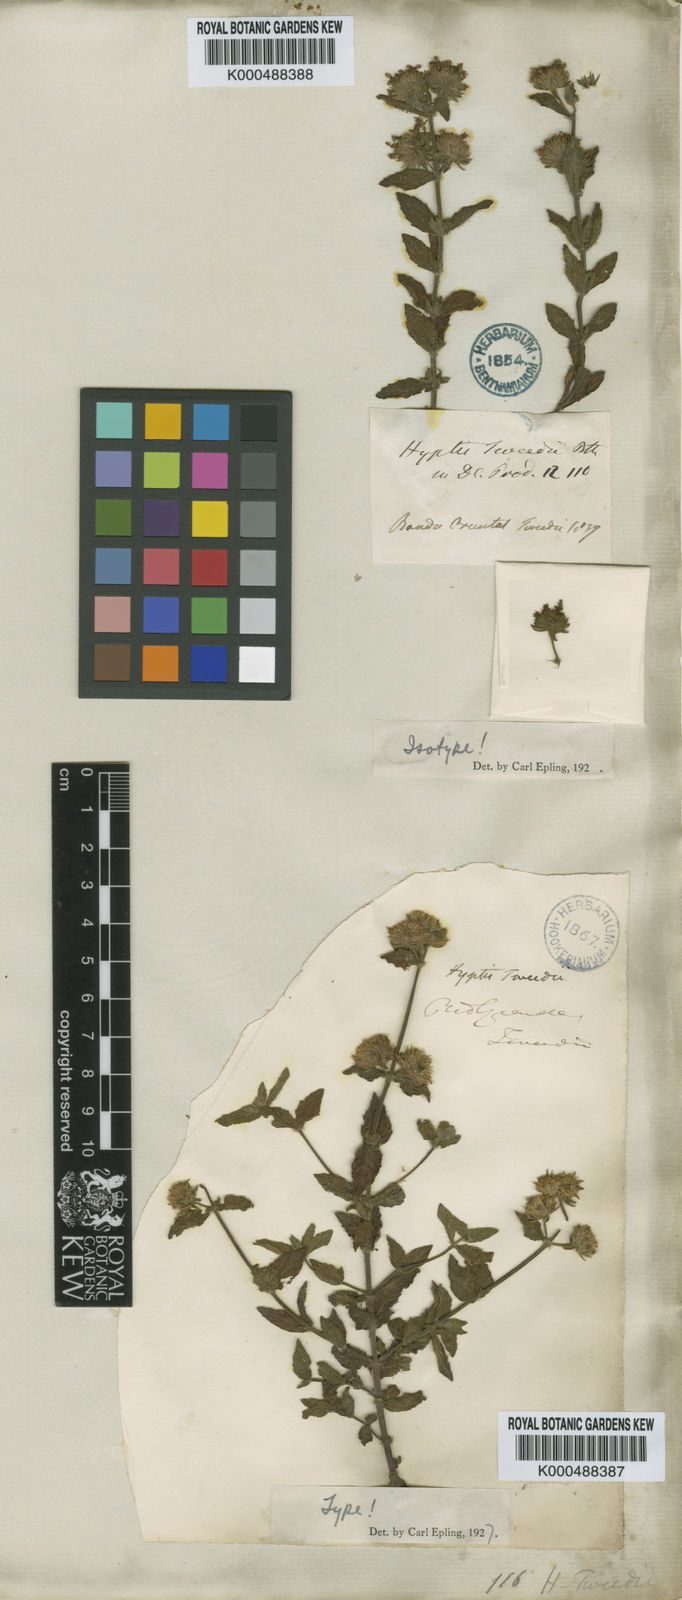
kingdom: Plantae
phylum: Tracheophyta
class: Magnoliopsida
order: Lamiales
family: Lamiaceae
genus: Hyptis
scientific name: Hyptis brevipes
